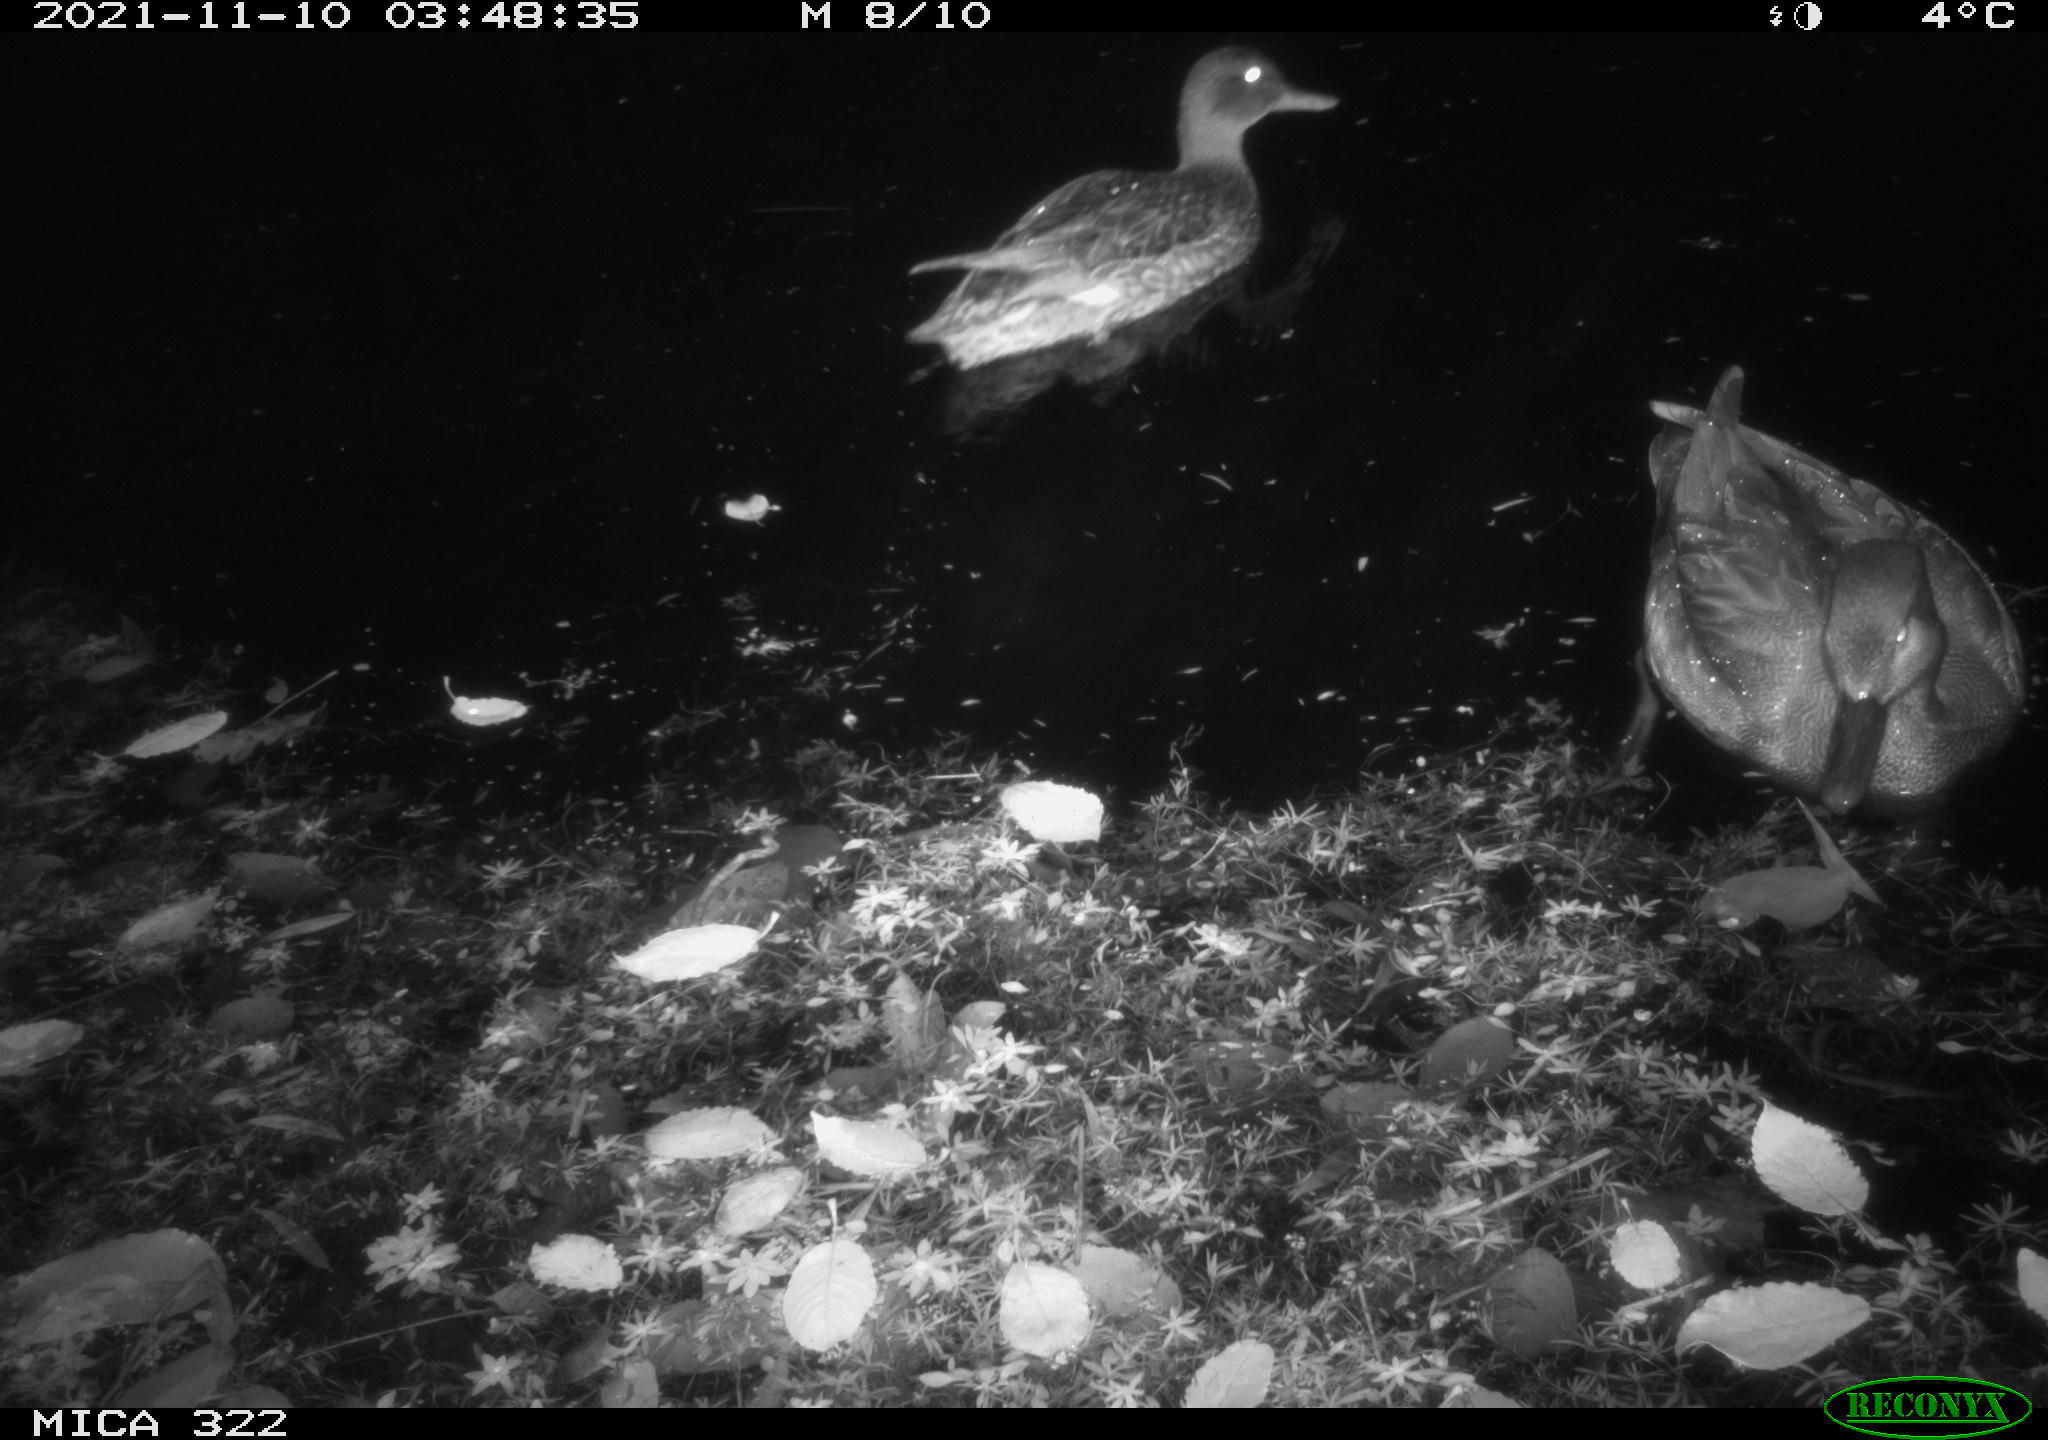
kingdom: Animalia
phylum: Chordata
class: Aves
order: Anseriformes
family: Anatidae
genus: Anas
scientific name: Anas platyrhynchos
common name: Mallard
